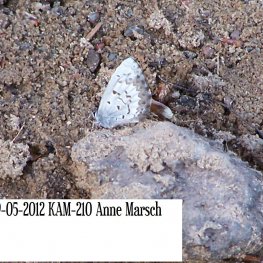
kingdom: Animalia
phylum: Arthropoda
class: Insecta
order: Lepidoptera
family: Lycaenidae
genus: Celastrina
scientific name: Celastrina lucia
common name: Northern Spring Azure
